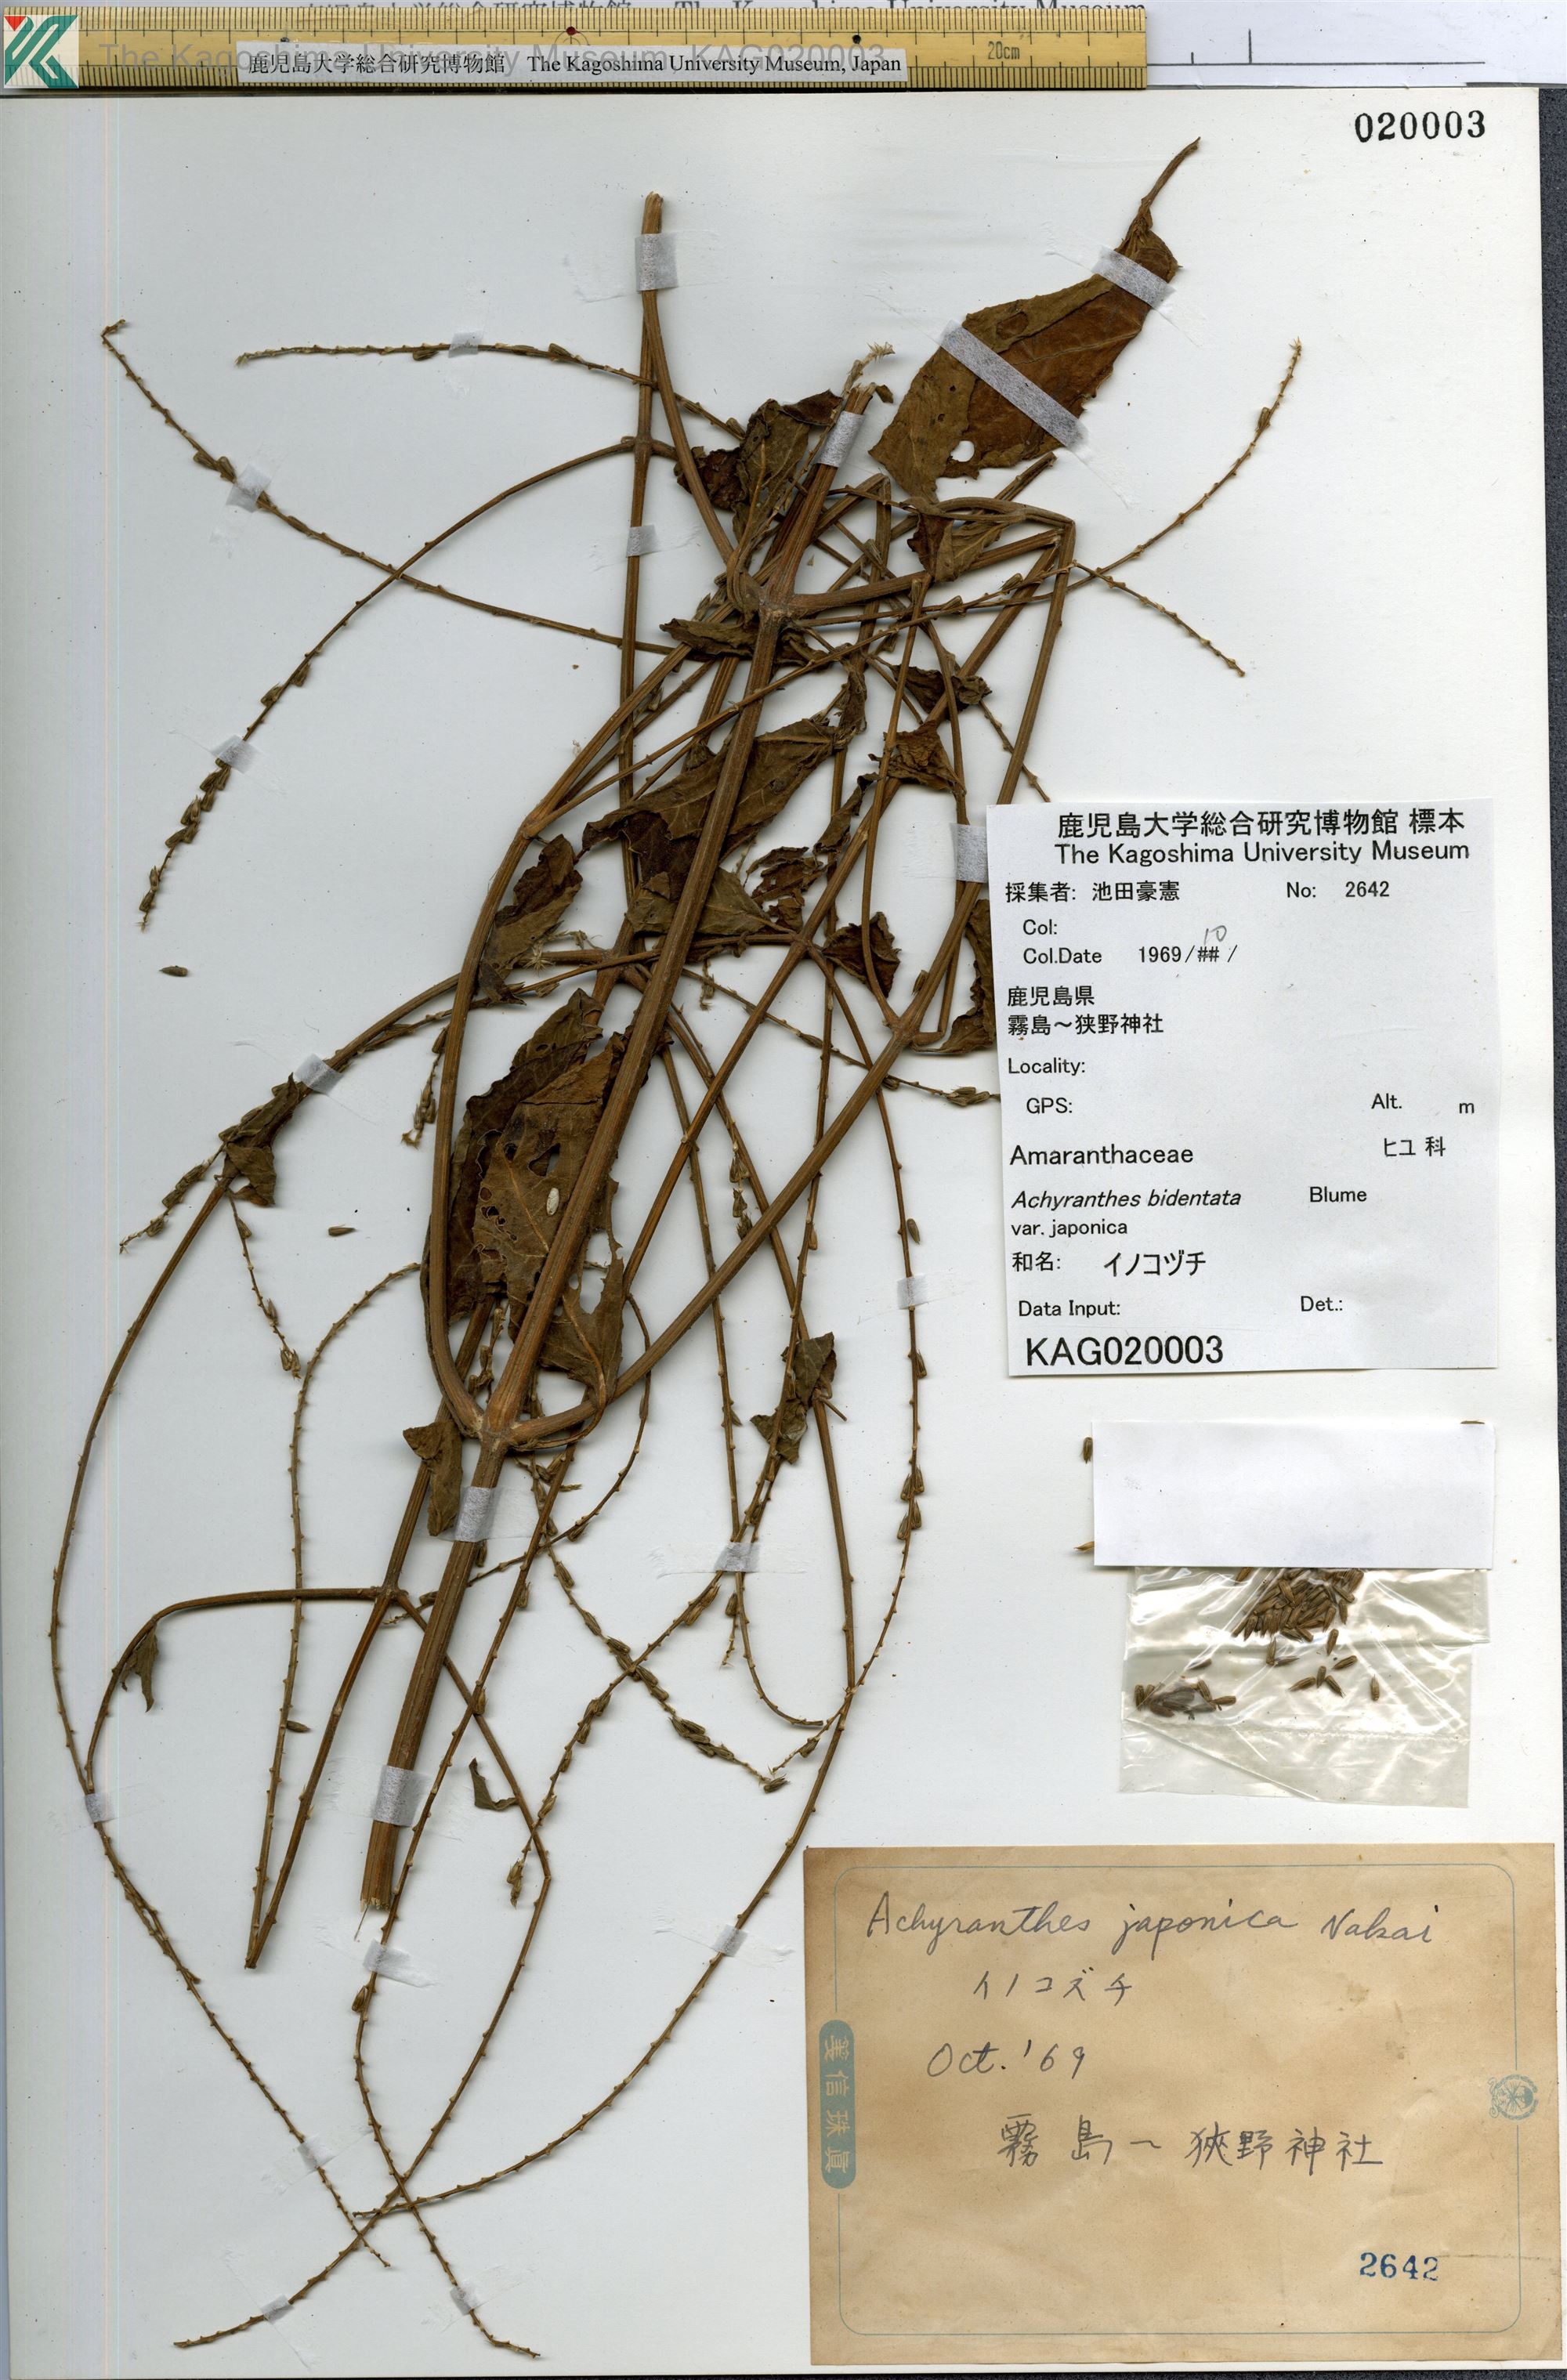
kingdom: Plantae
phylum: Tracheophyta
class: Magnoliopsida
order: Caryophyllales
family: Amaranthaceae
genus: Achyranthes
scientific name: Achyranthes bidentata
